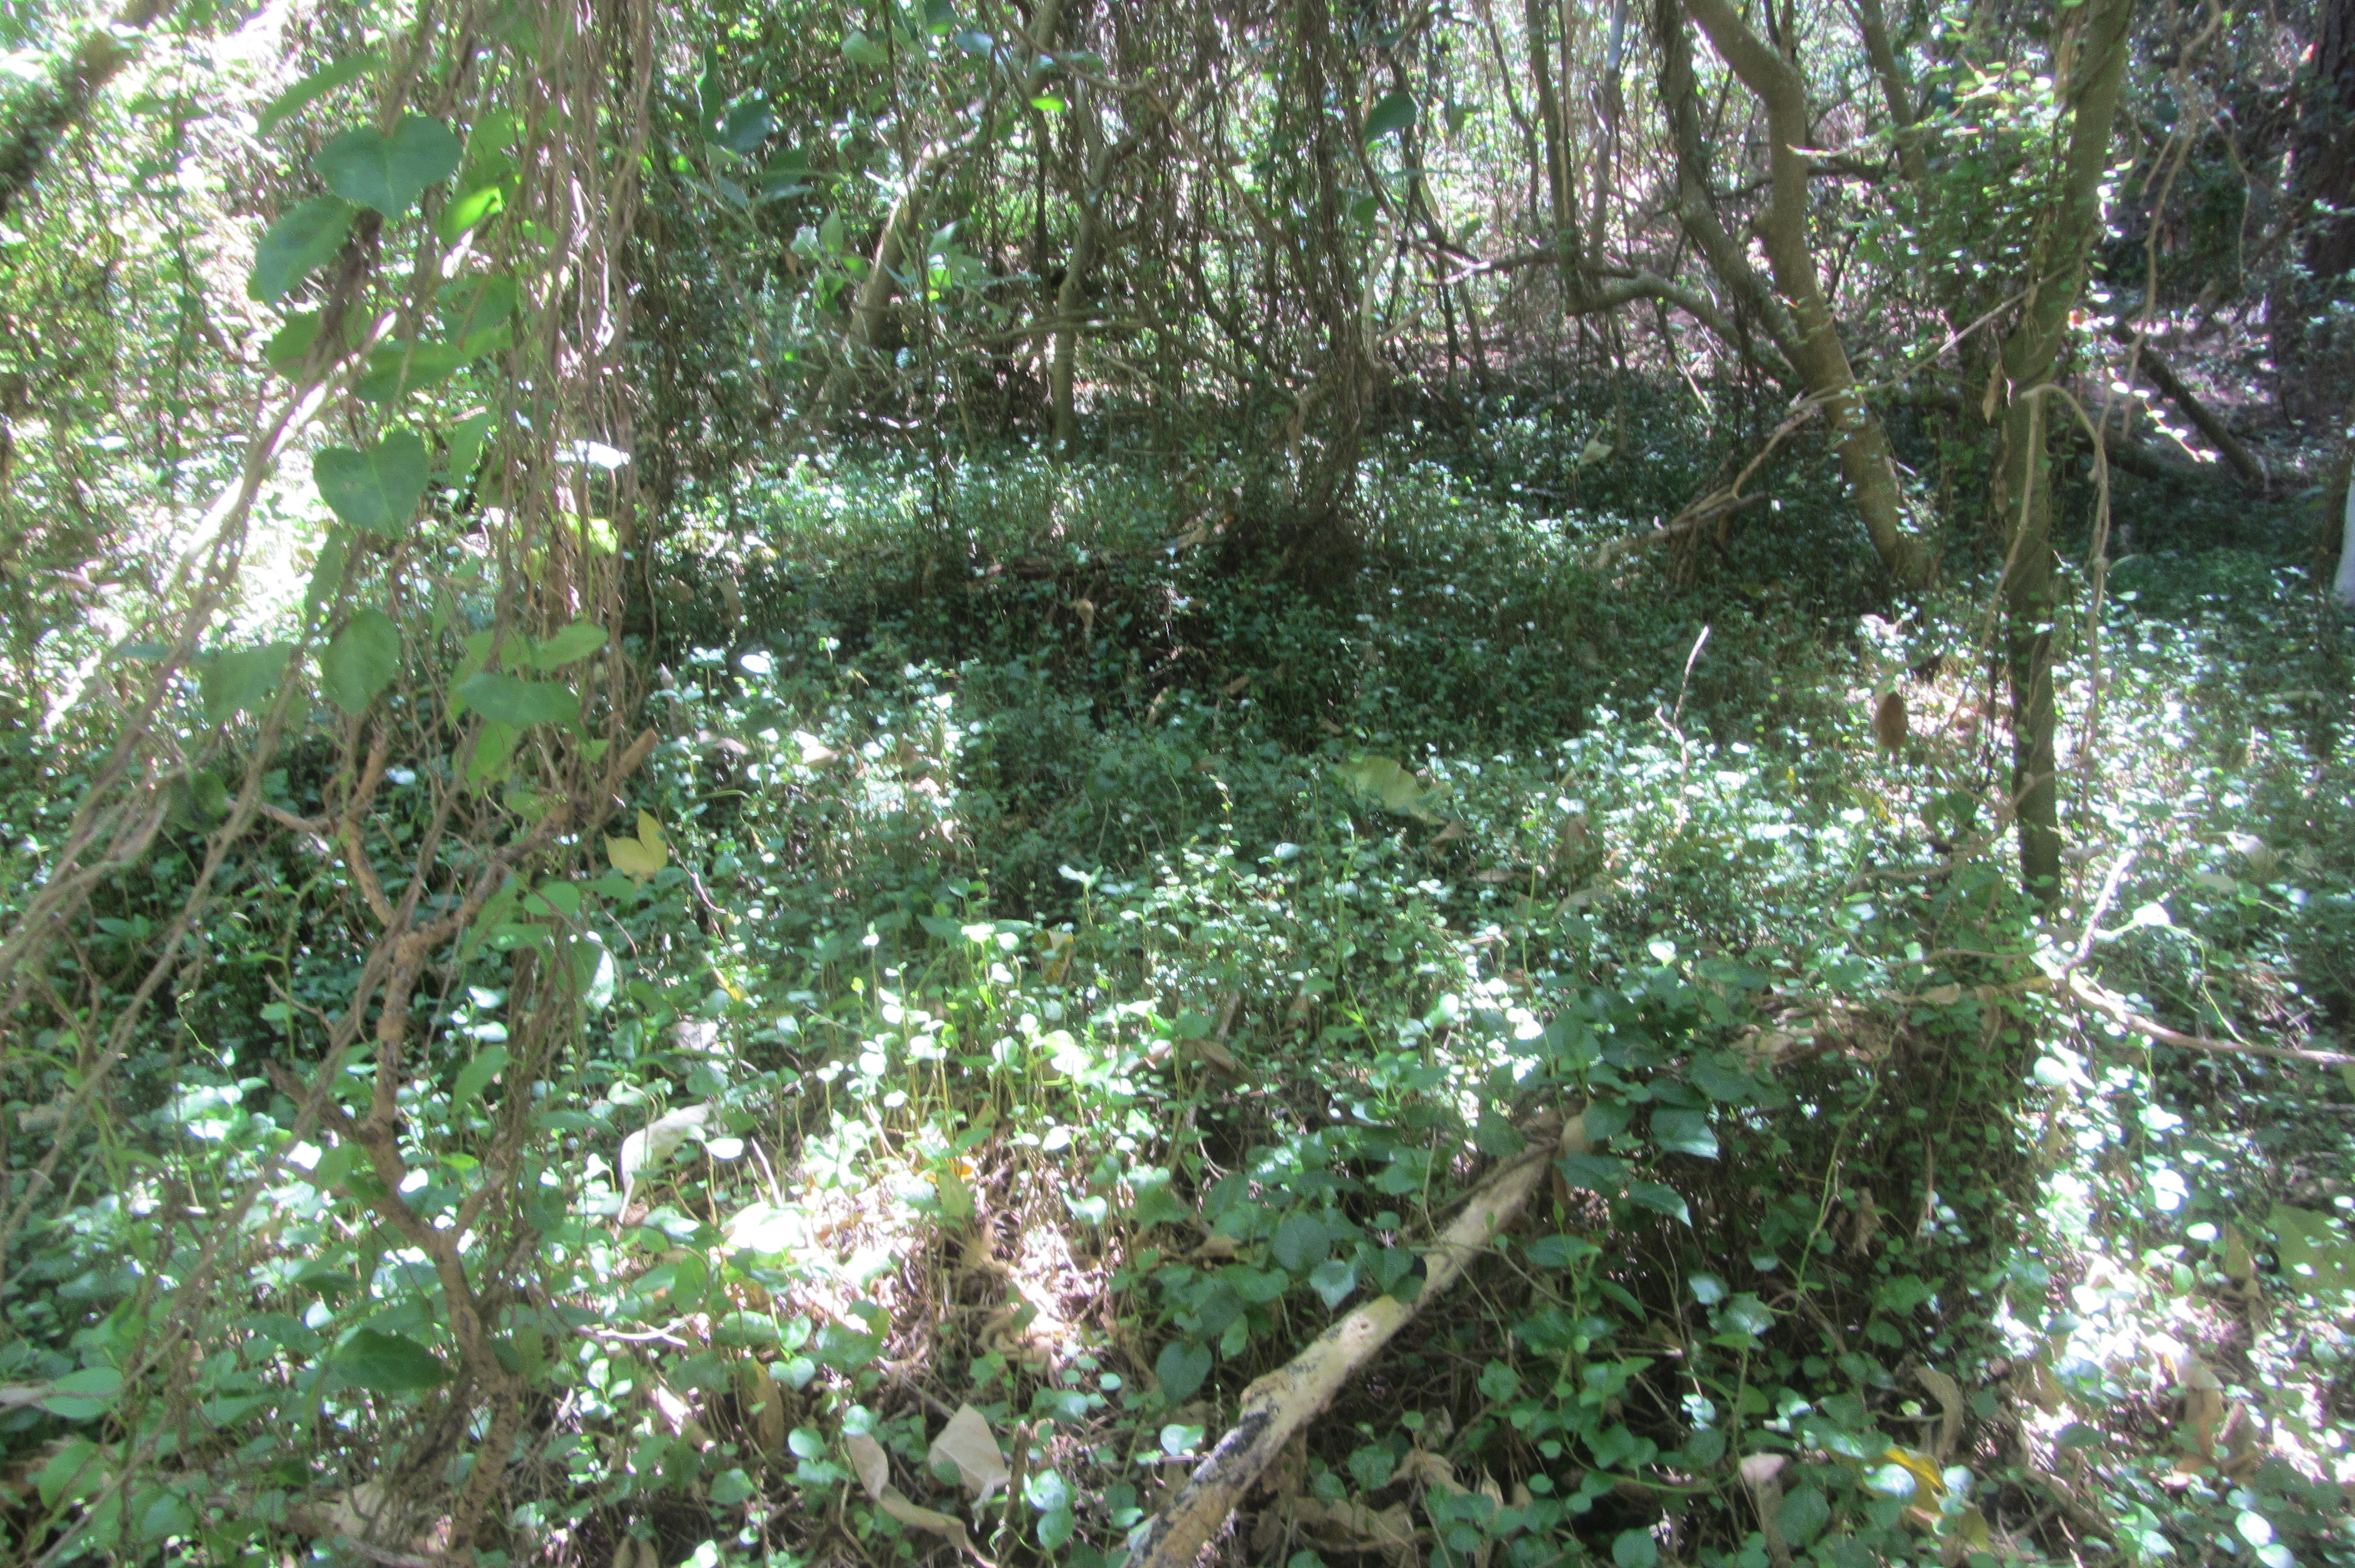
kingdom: Plantae
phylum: Tracheophyta
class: Magnoliopsida
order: Caryophyllales
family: Basellaceae
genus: Anredera
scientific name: Anredera cordifolia
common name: Heartleaf madeiravine
